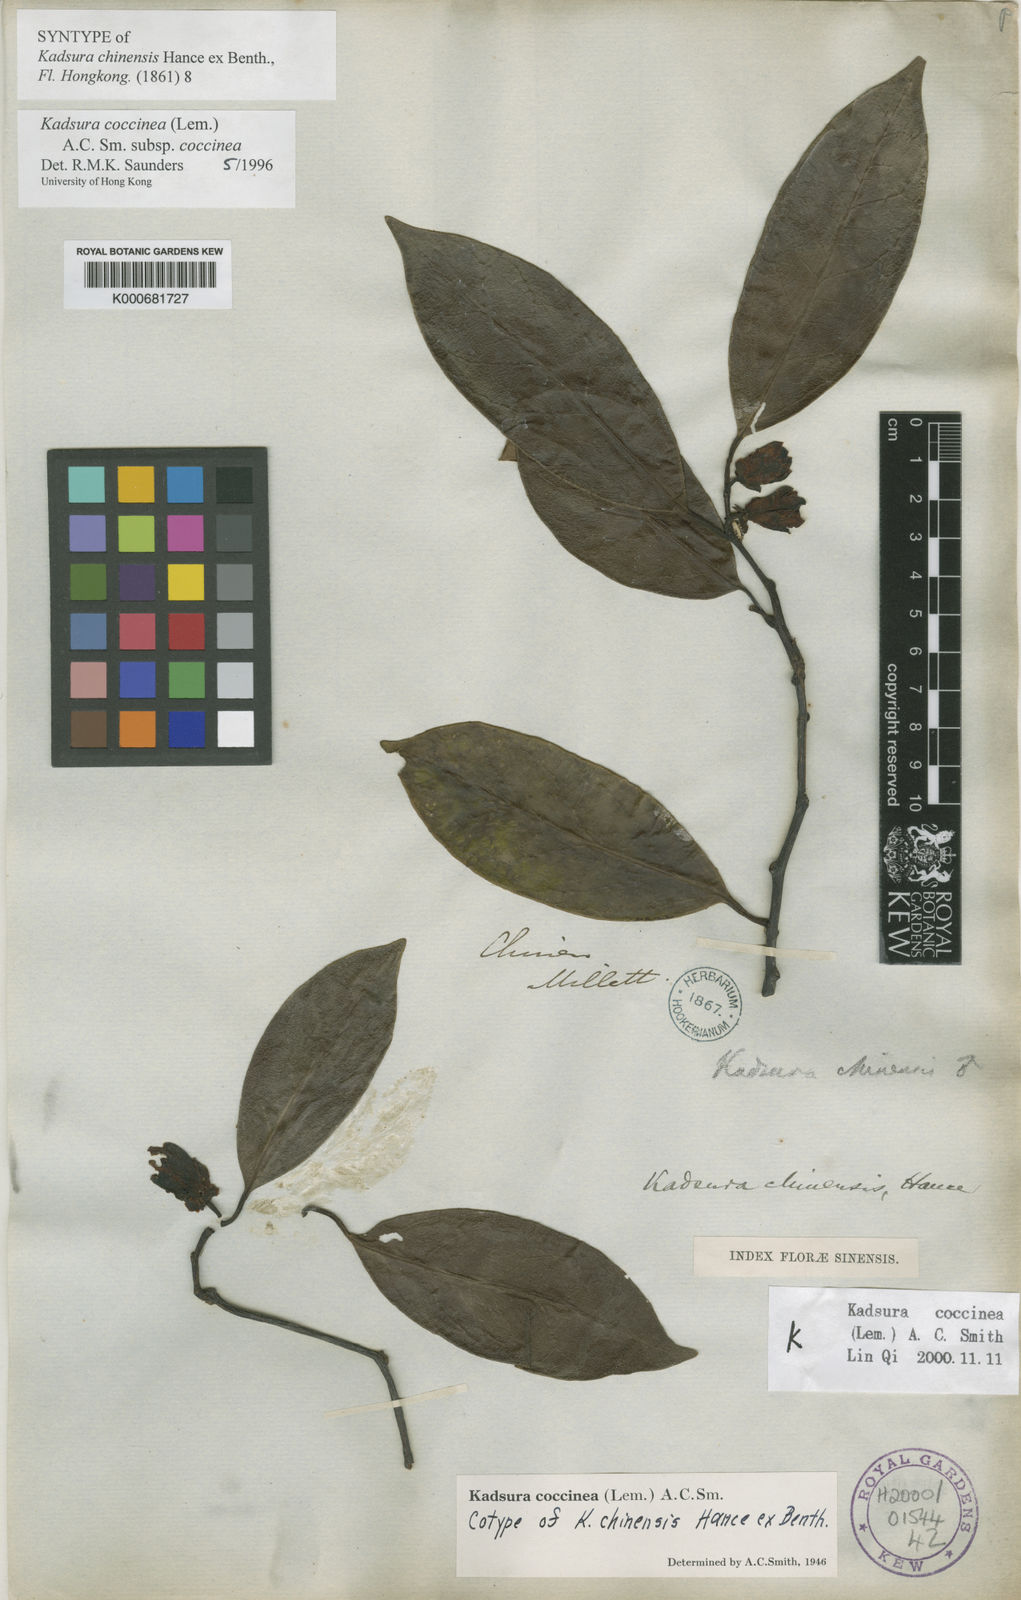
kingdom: Plantae
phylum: Tracheophyta
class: Magnoliopsida
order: Austrobaileyales
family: Schisandraceae
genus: Kadsura
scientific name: Kadsura coccinea
